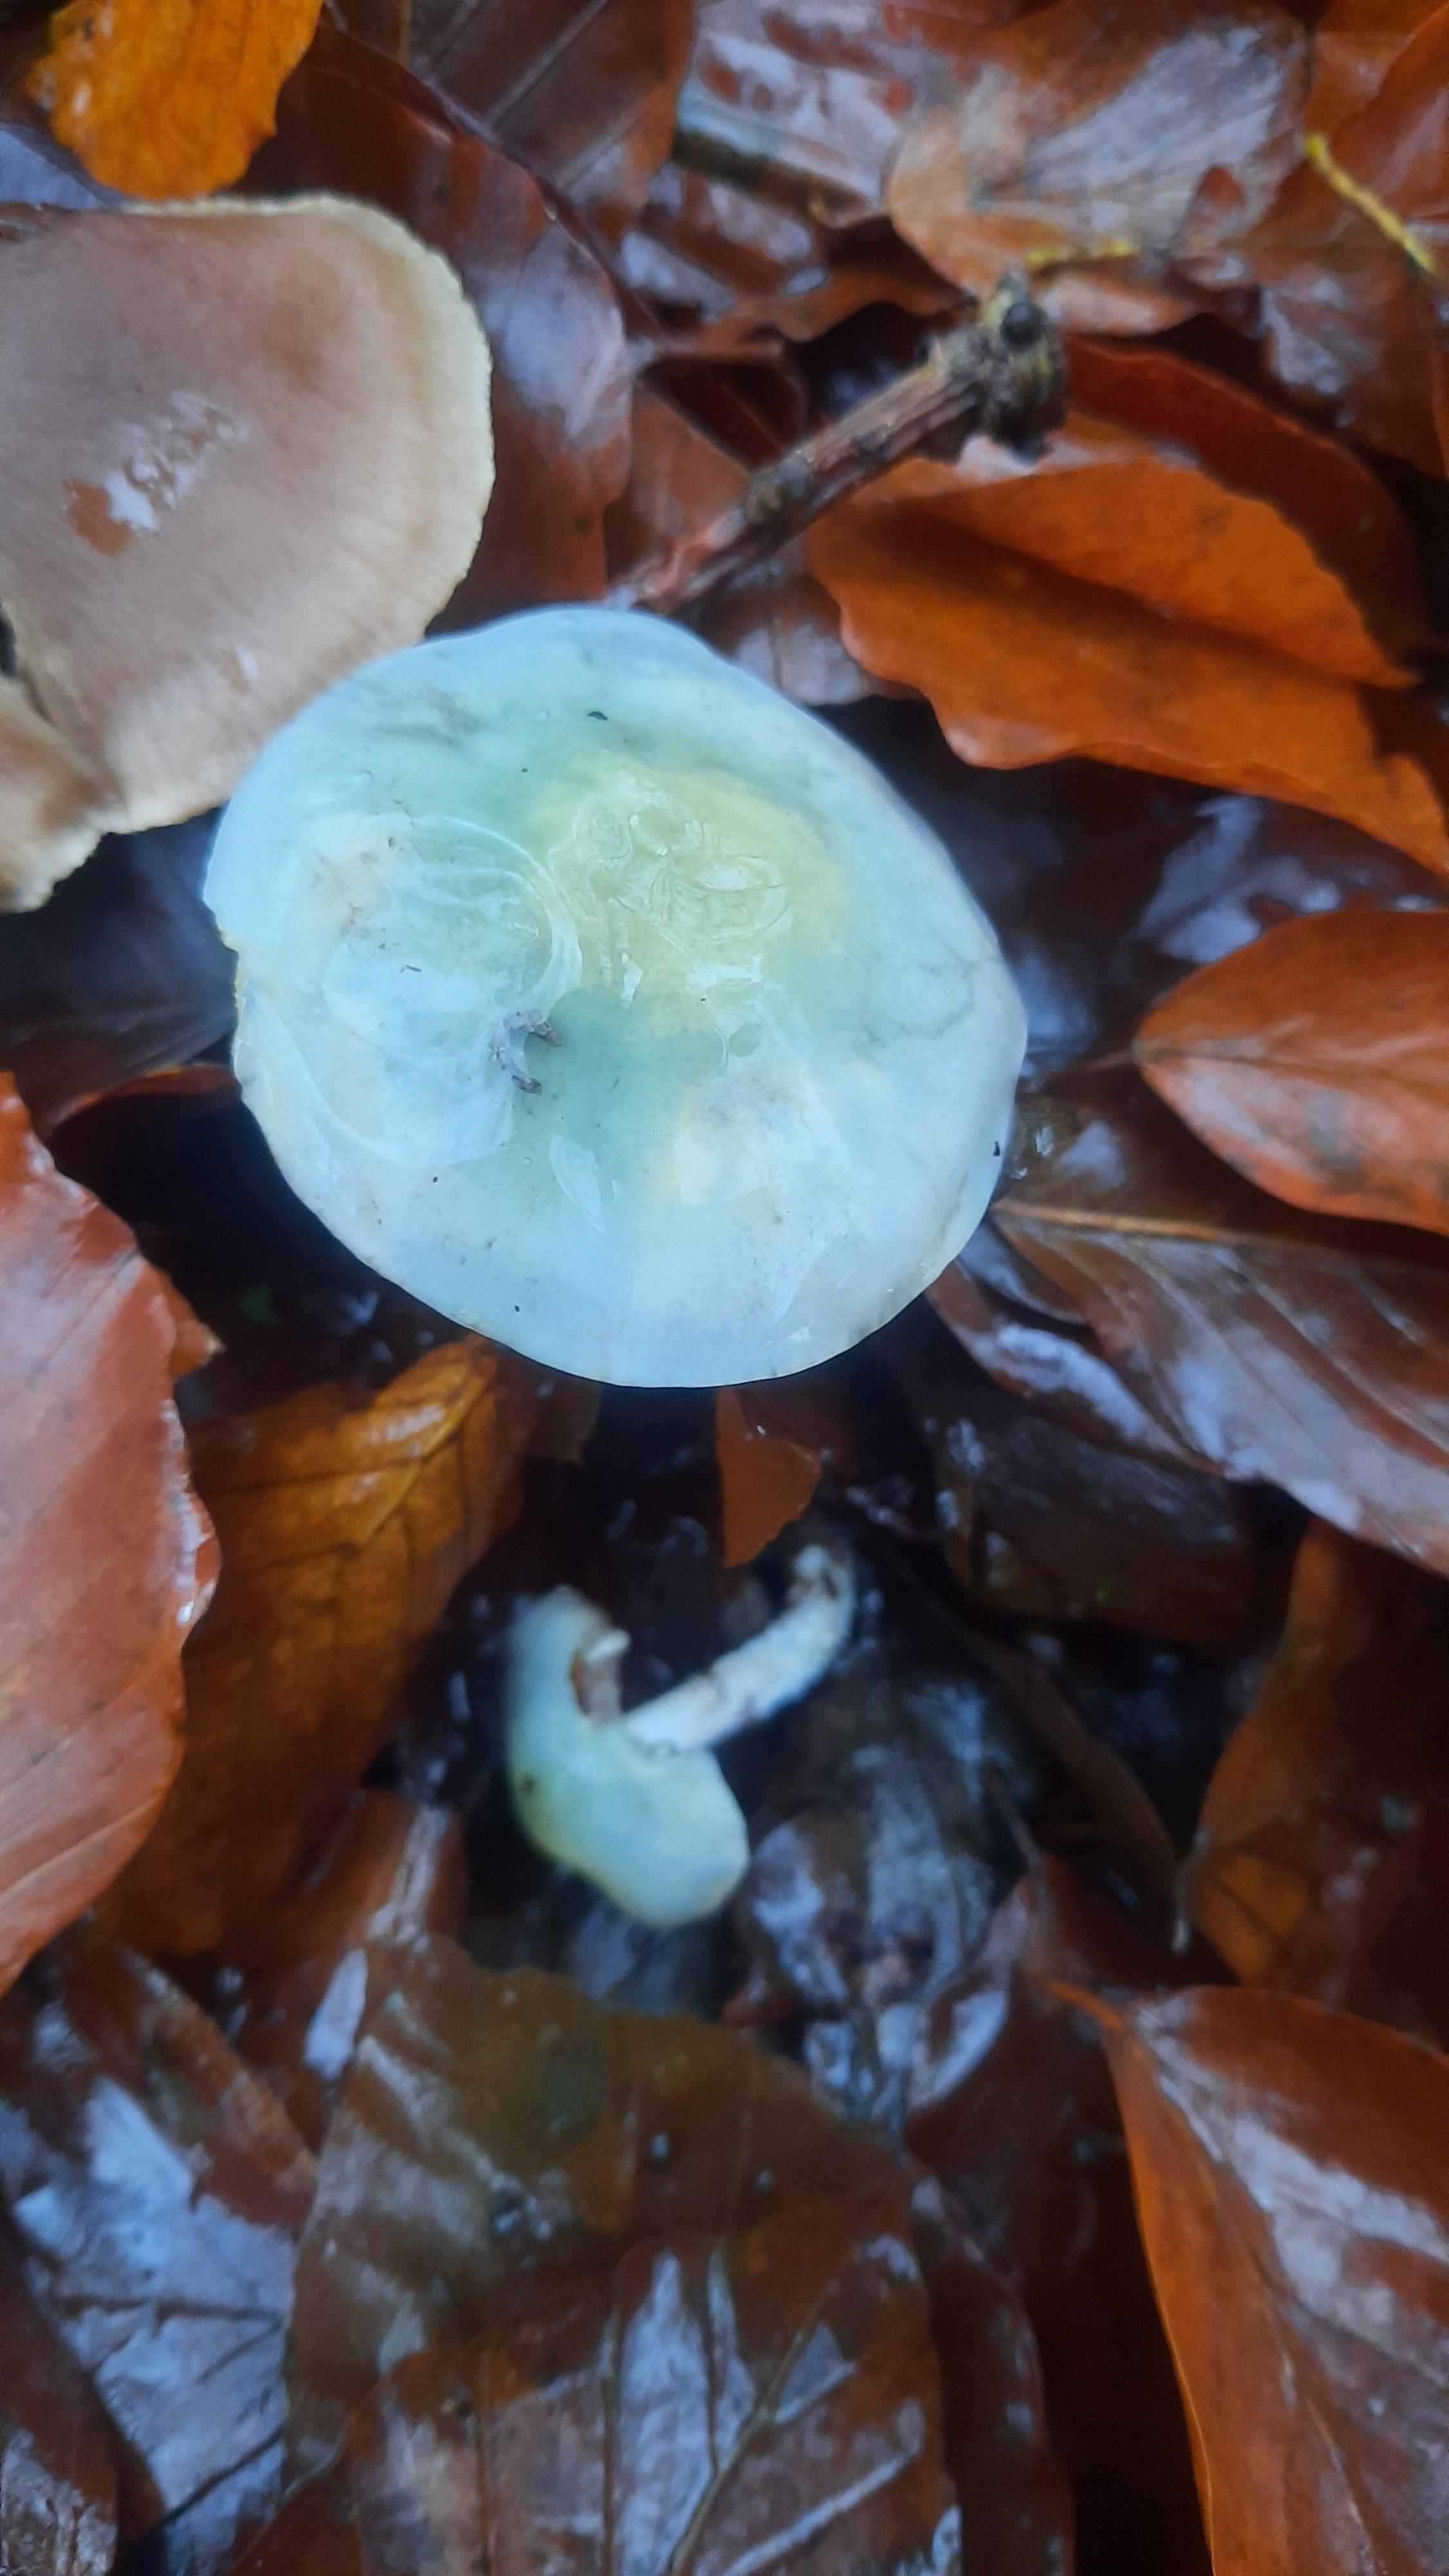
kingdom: Fungi
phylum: Basidiomycota
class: Agaricomycetes
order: Agaricales
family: Strophariaceae
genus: Stropharia
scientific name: Stropharia cyanea
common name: blågrøn bredblad
